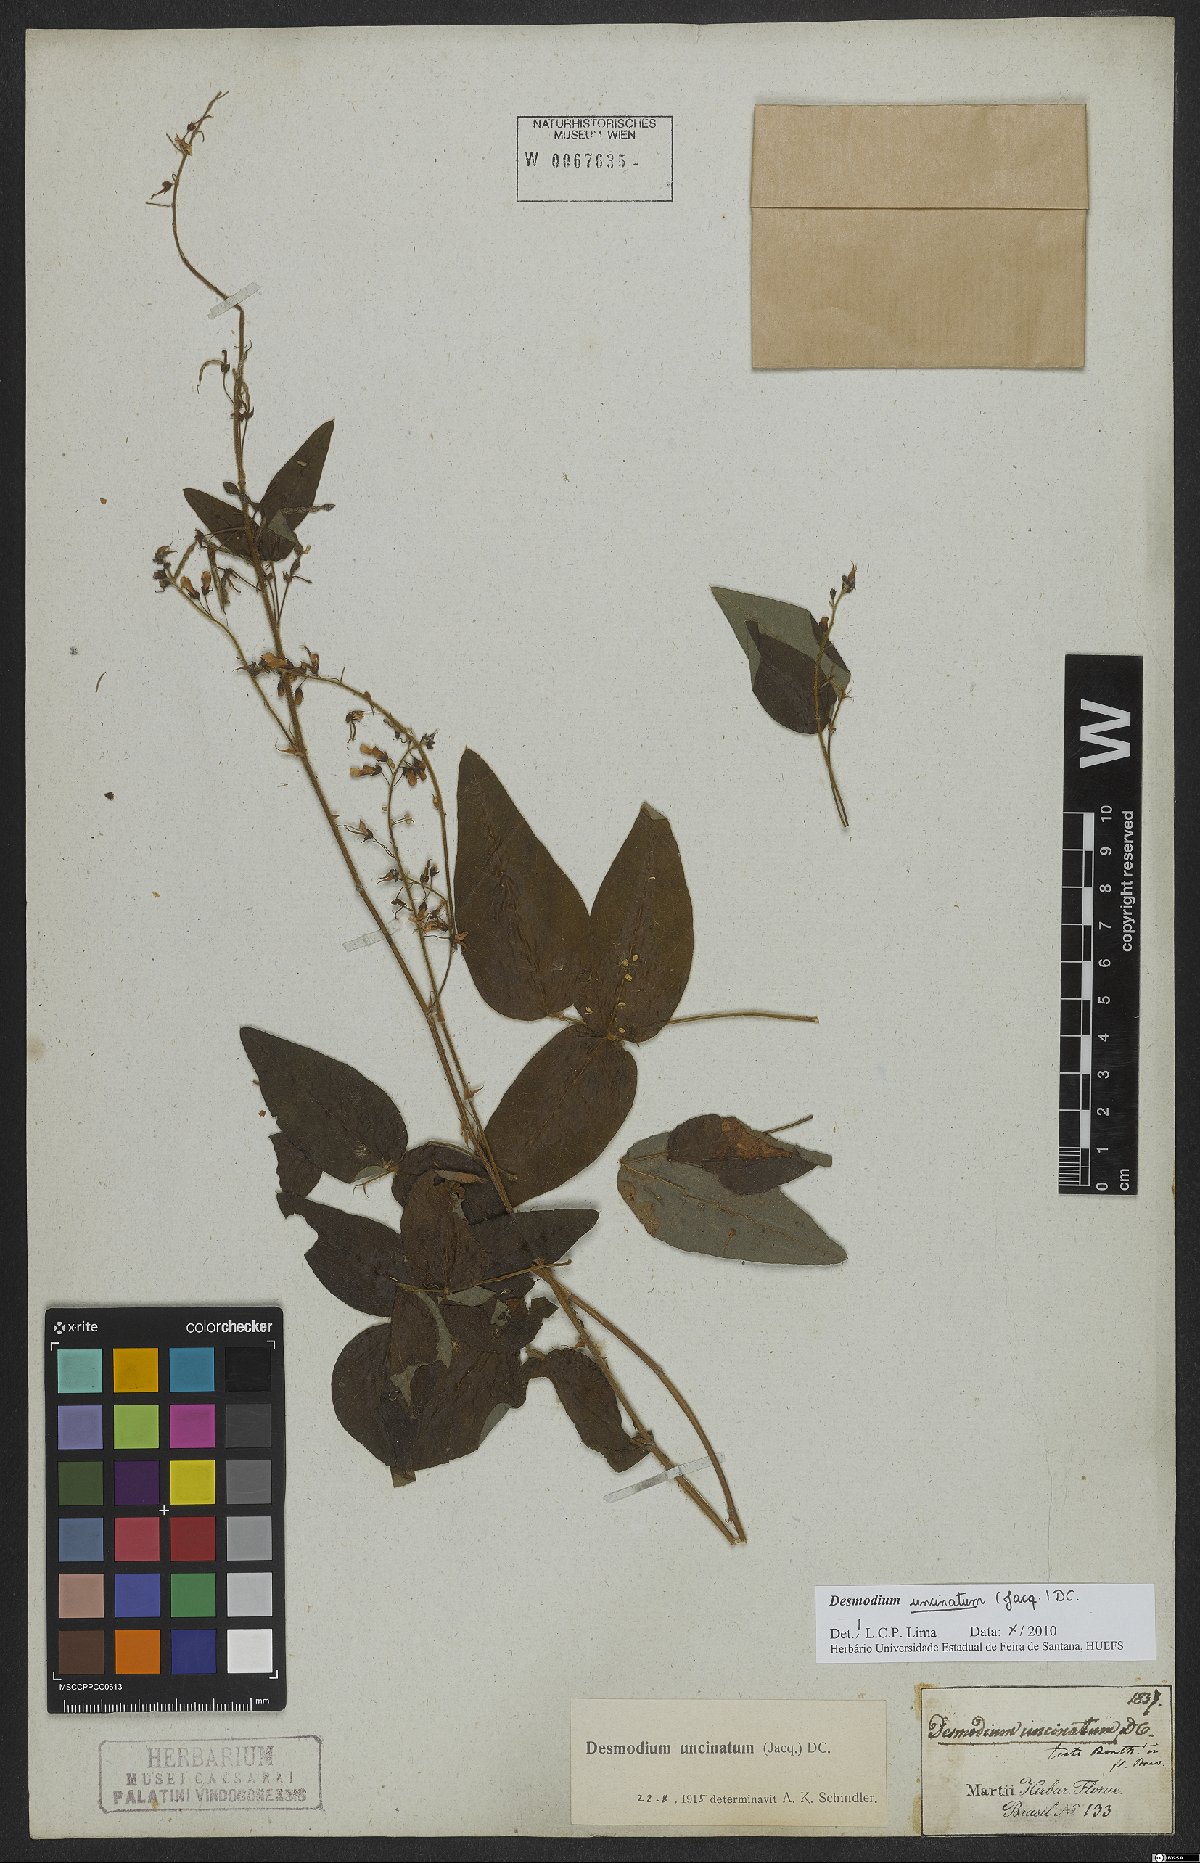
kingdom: Plantae
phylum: Tracheophyta
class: Magnoliopsida
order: Fabales
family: Fabaceae
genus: Desmodium
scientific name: Desmodium uncinatum
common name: Silverleaf desmodium
